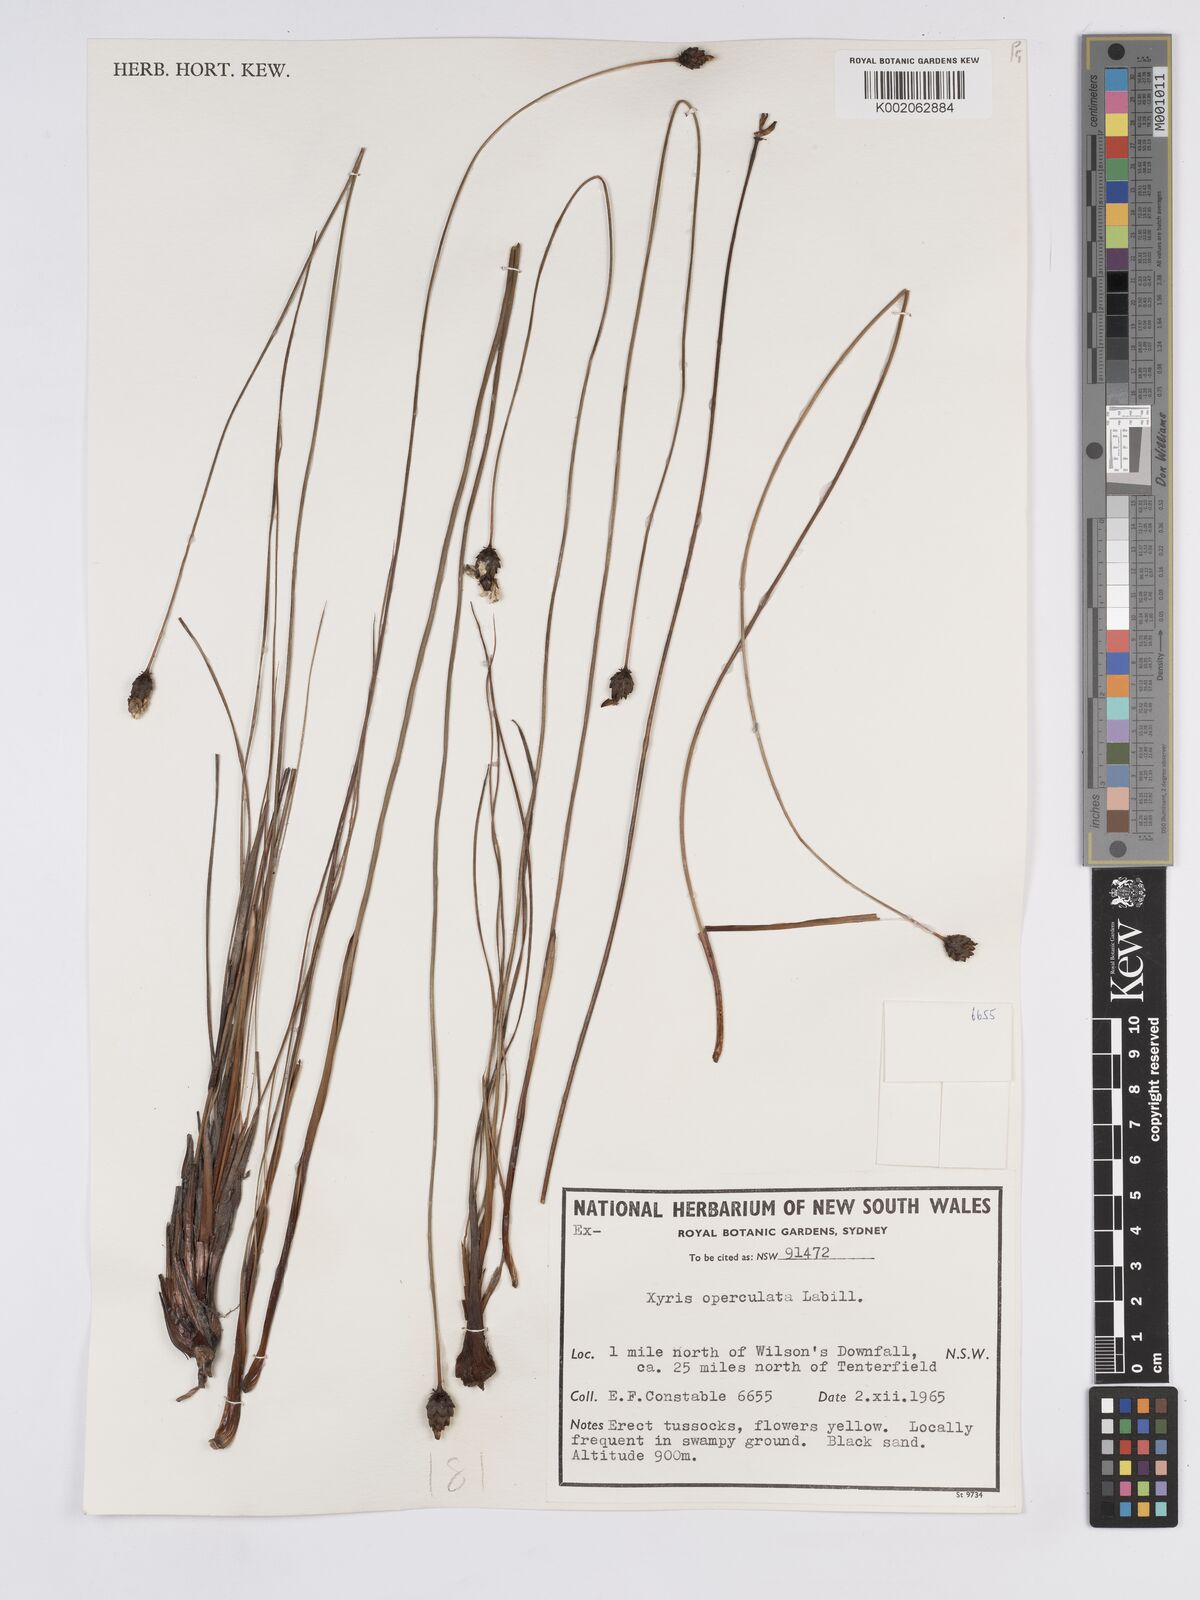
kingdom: Plantae
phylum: Tracheophyta
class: Liliopsida
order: Poales
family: Xyridaceae
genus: Xyris
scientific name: Xyris operculata
